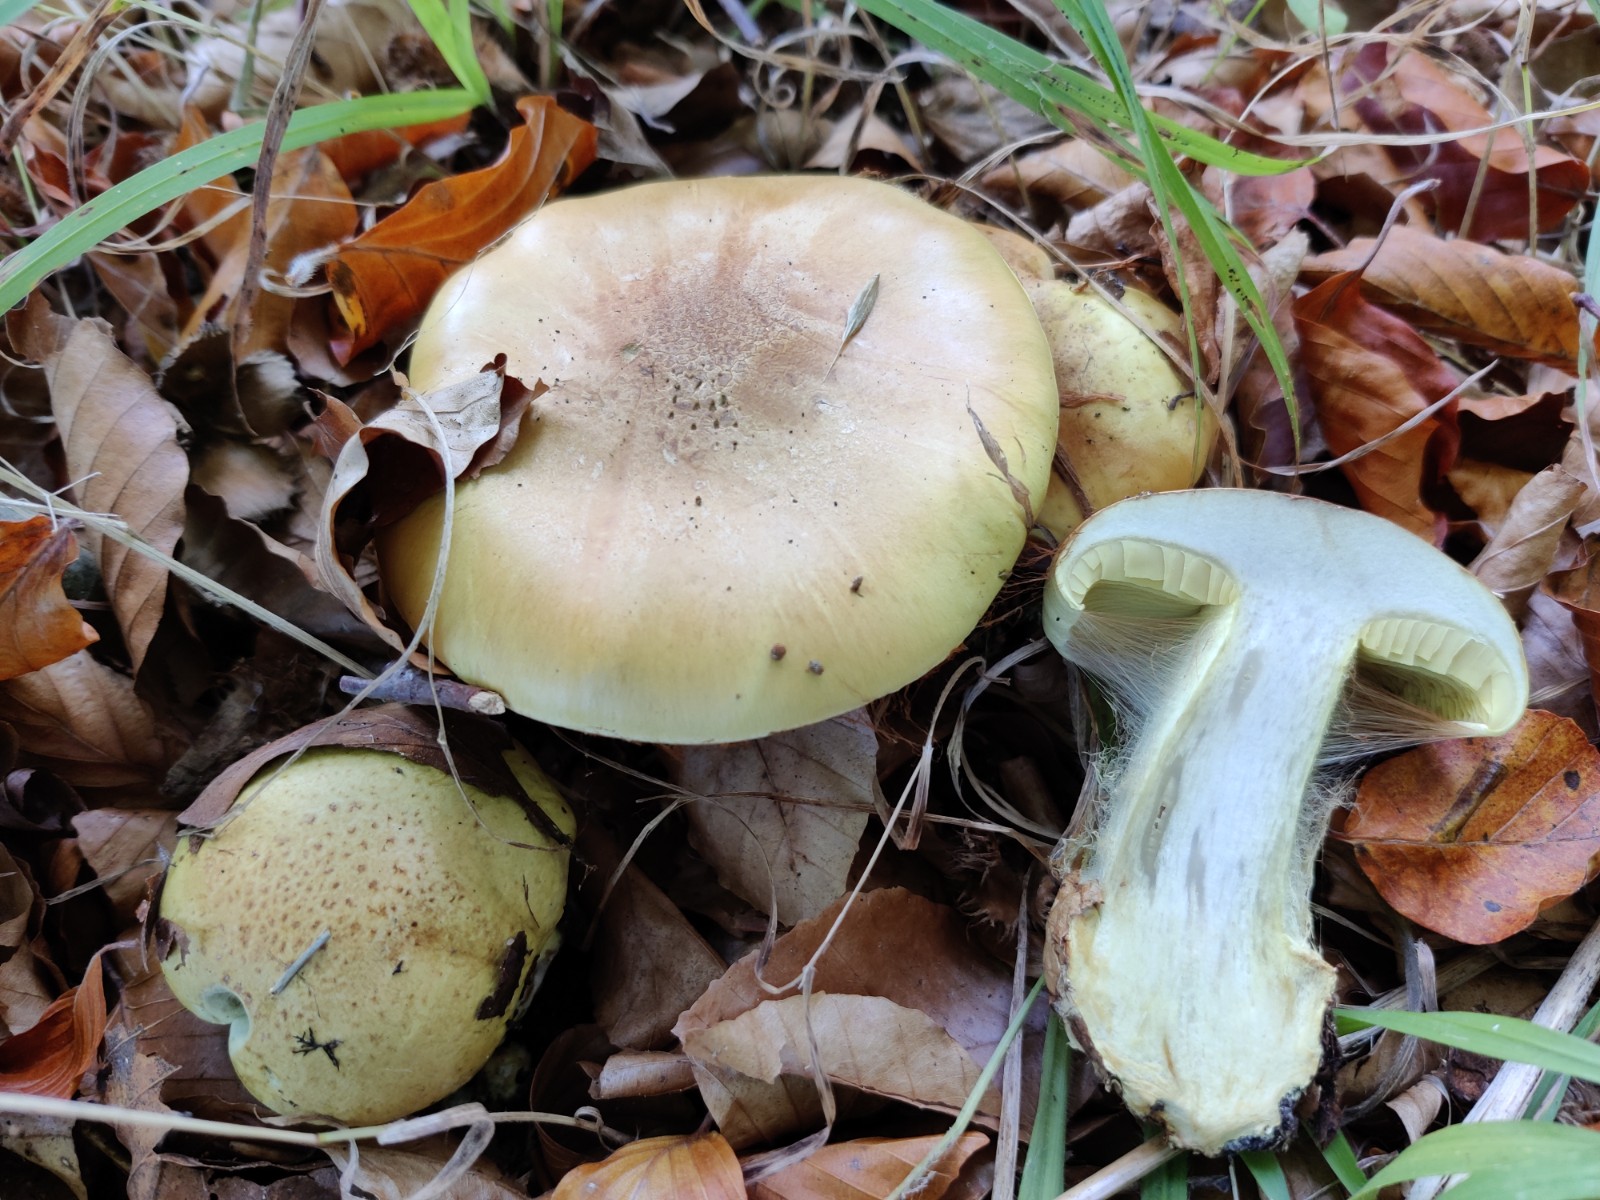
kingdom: Fungi
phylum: Basidiomycota
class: Agaricomycetes
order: Agaricales
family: Cortinariaceae
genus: Calonarius
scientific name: Calonarius elegantissimus
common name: orangegylden slørhat
